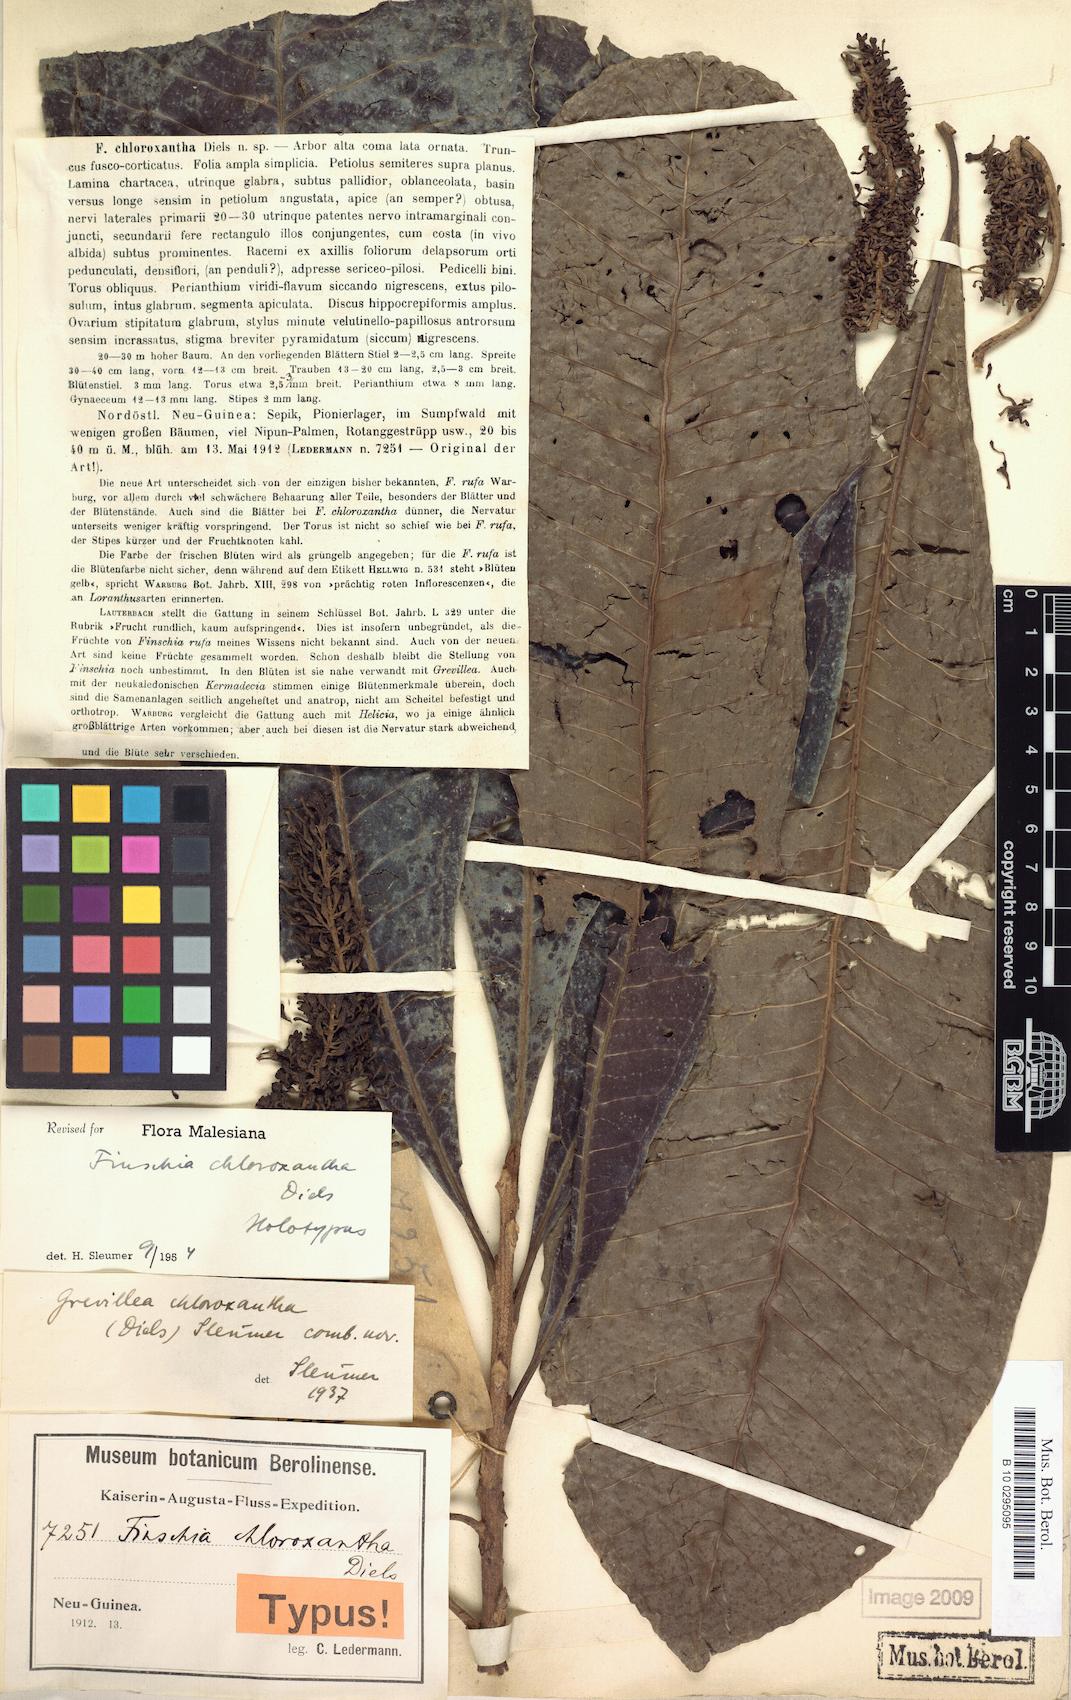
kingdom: Plantae
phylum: Tracheophyta
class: Magnoliopsida
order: Proteales
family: Proteaceae
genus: Finschia
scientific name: Finschia chloroxantha
